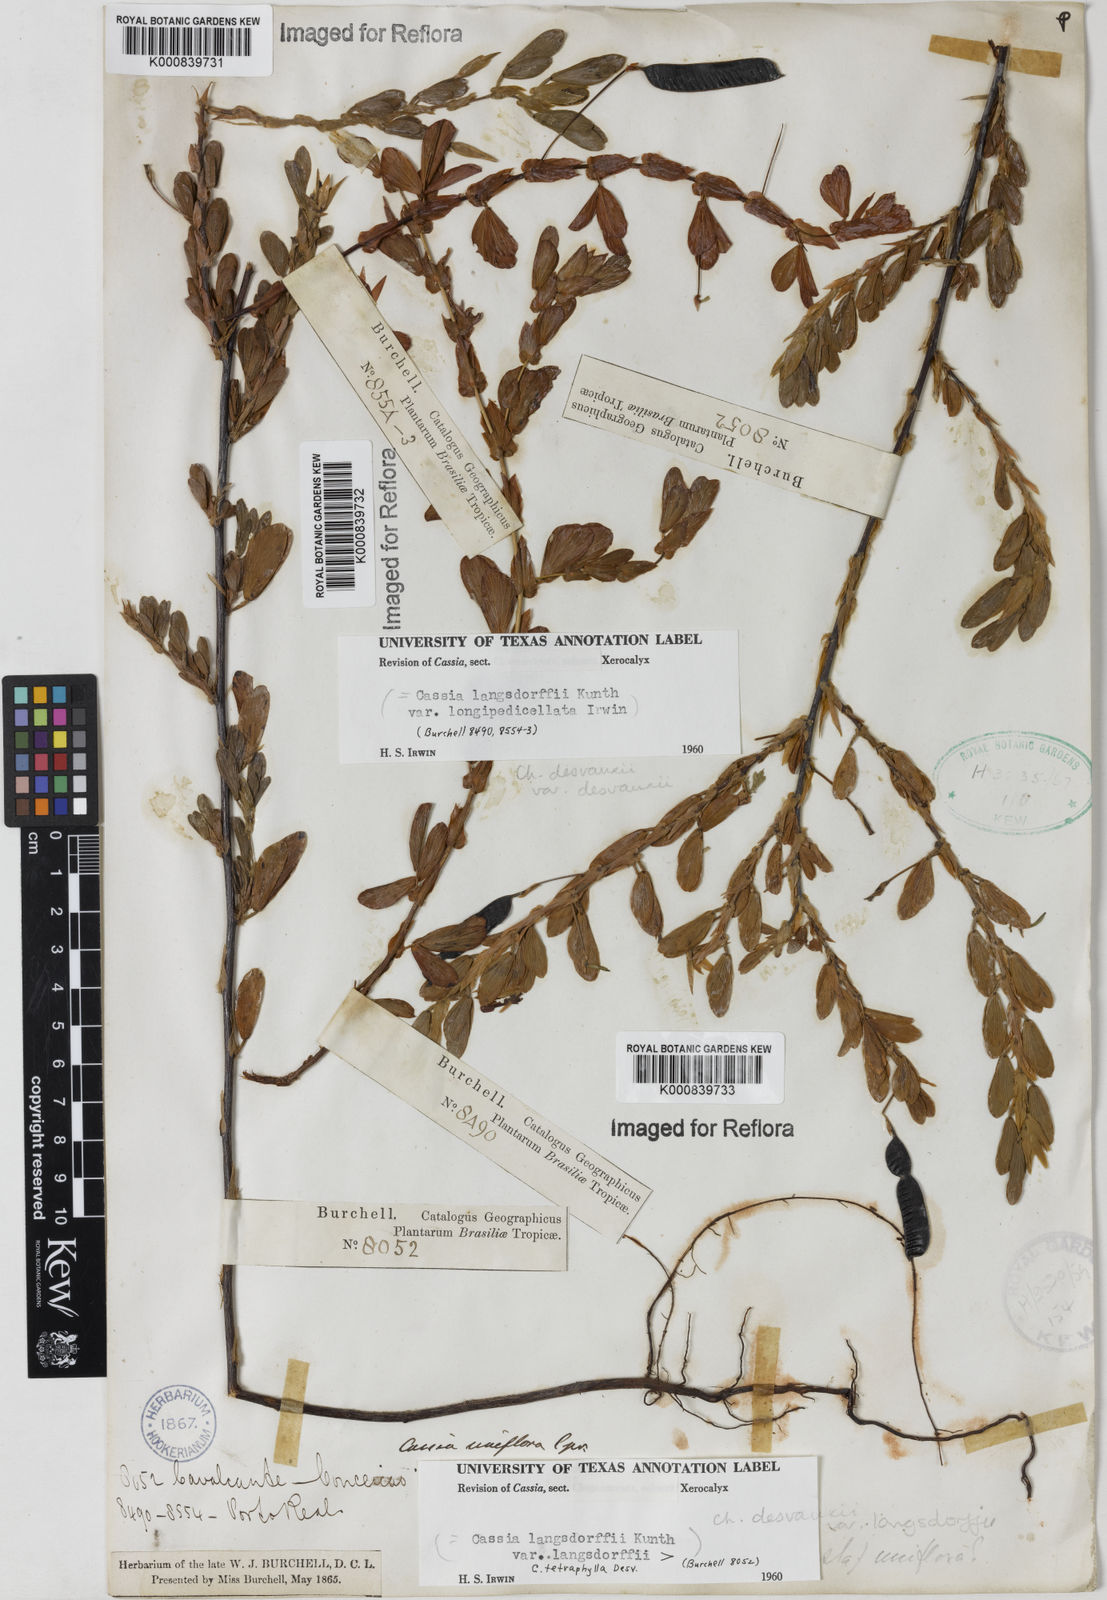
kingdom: Plantae
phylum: Tracheophyta
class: Magnoliopsida
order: Fabales
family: Fabaceae
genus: Chamaecrista
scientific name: Chamaecrista langsdorffii
